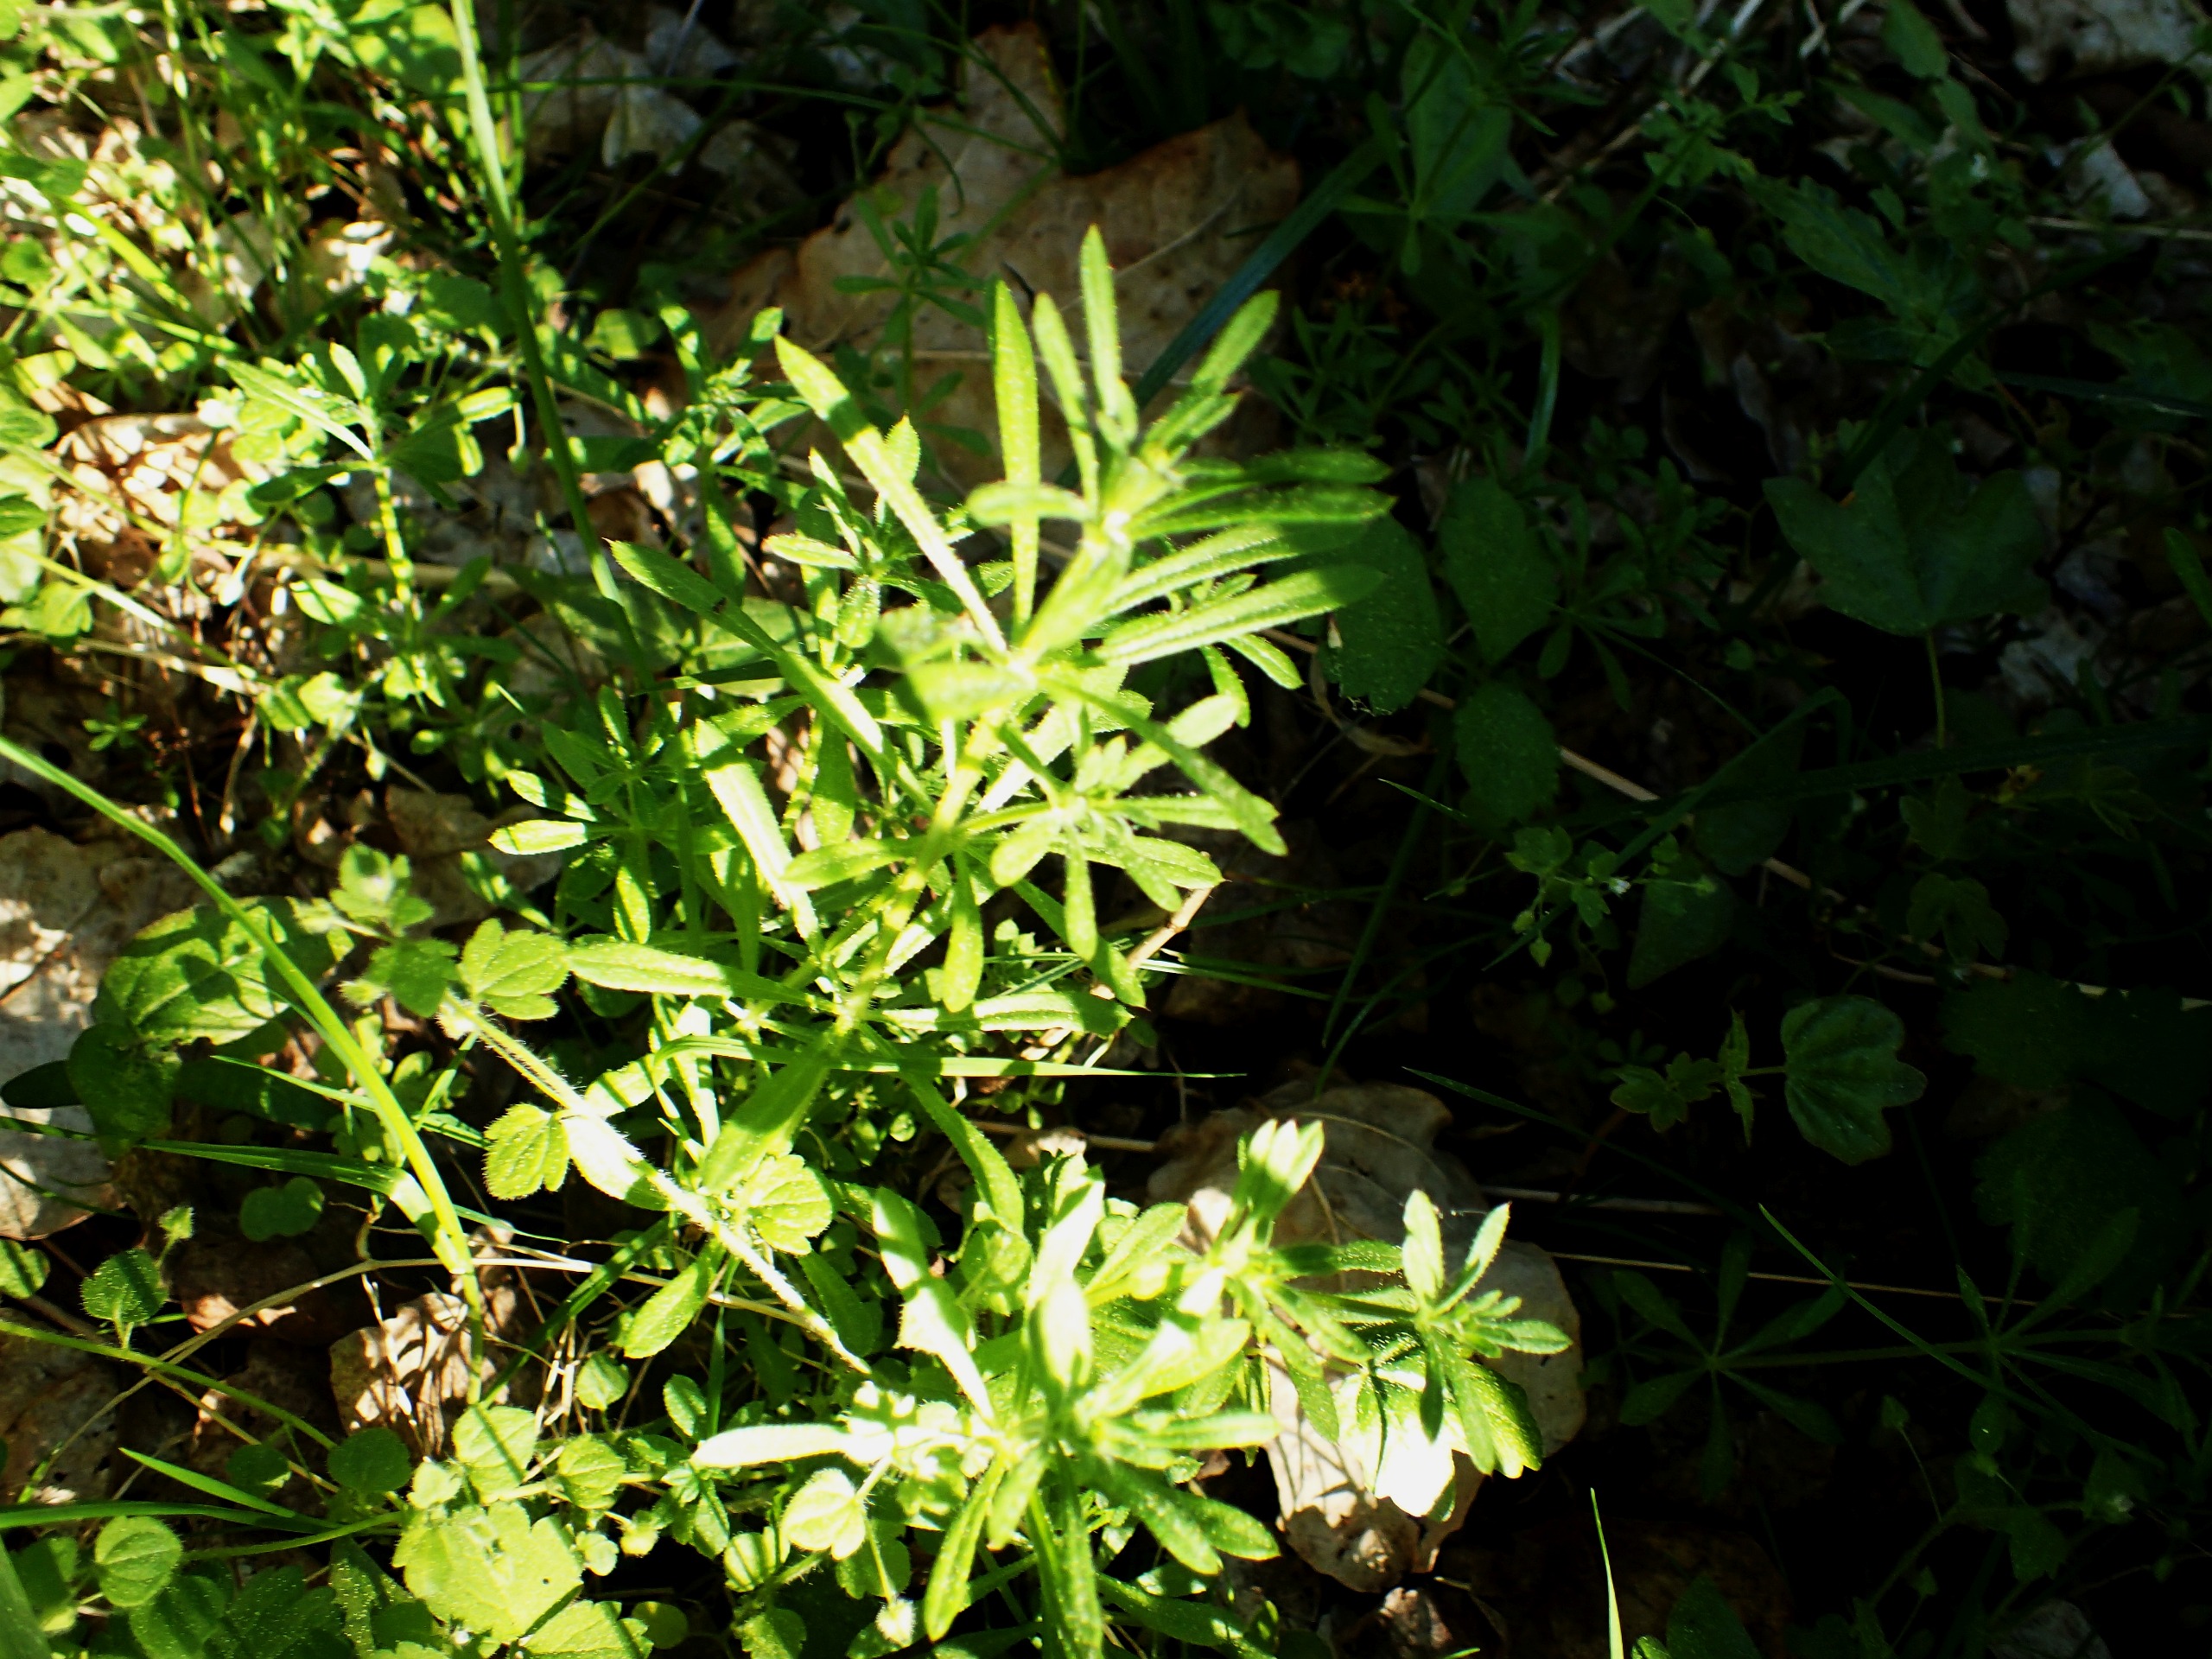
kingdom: Plantae
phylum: Tracheophyta
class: Magnoliopsida
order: Gentianales
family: Rubiaceae
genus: Galium
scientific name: Galium aparine
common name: Burre-snerre
